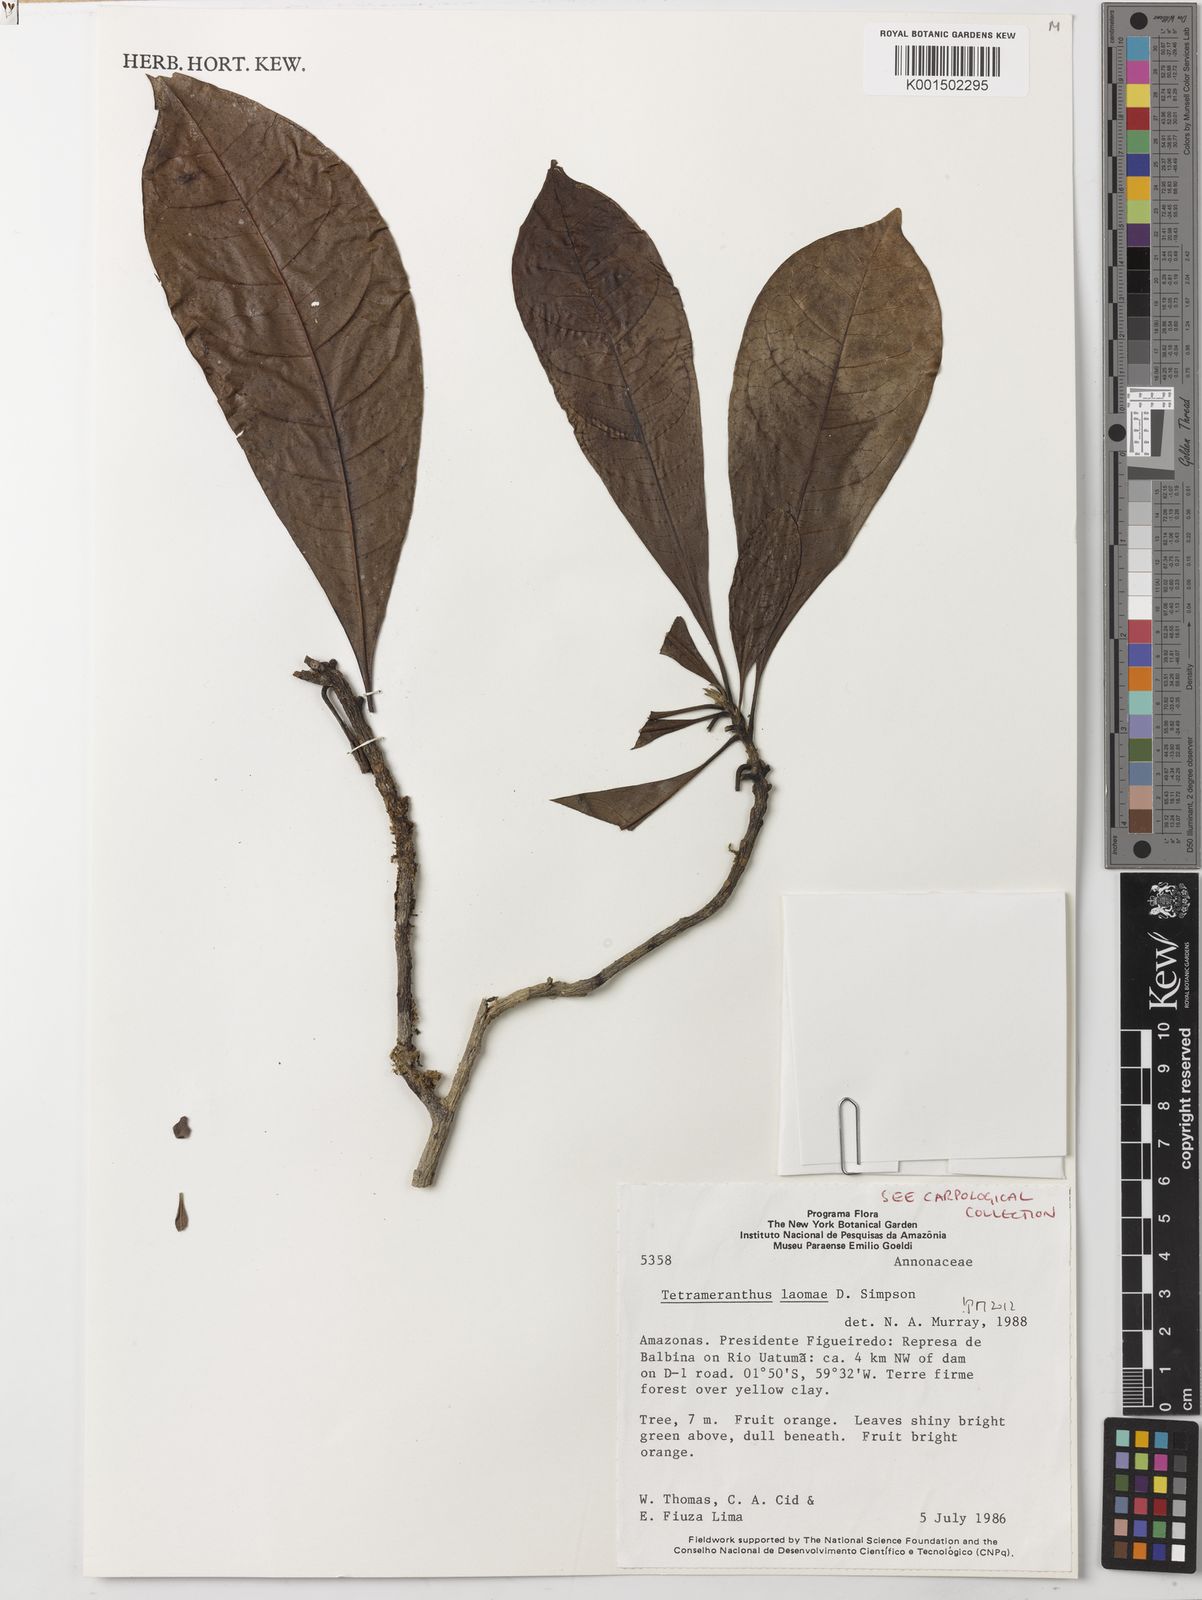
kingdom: Plantae
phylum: Tracheophyta
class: Magnoliopsida
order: Magnoliales
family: Annonaceae
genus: Tetrameranthus
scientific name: Tetrameranthus laomae
